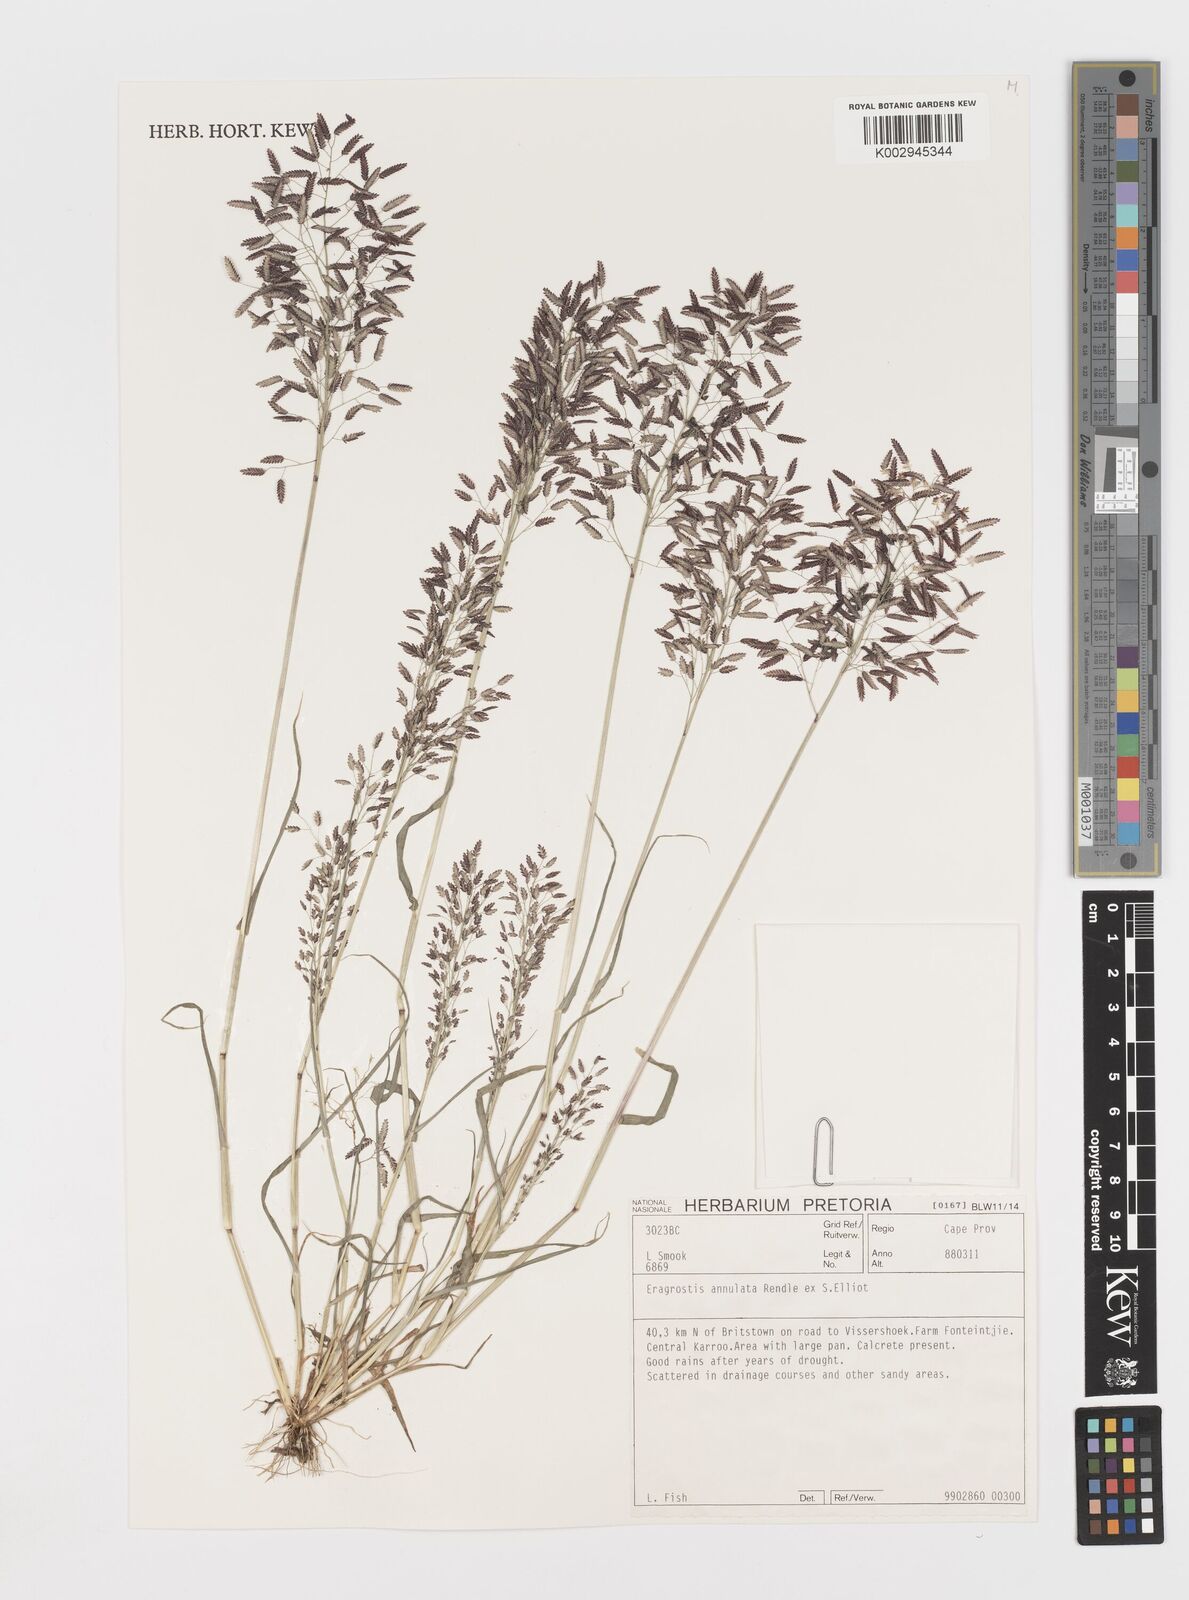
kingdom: Plantae
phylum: Tracheophyta
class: Liliopsida
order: Poales
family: Poaceae
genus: Eragrostis
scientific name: Eragrostis annulata
